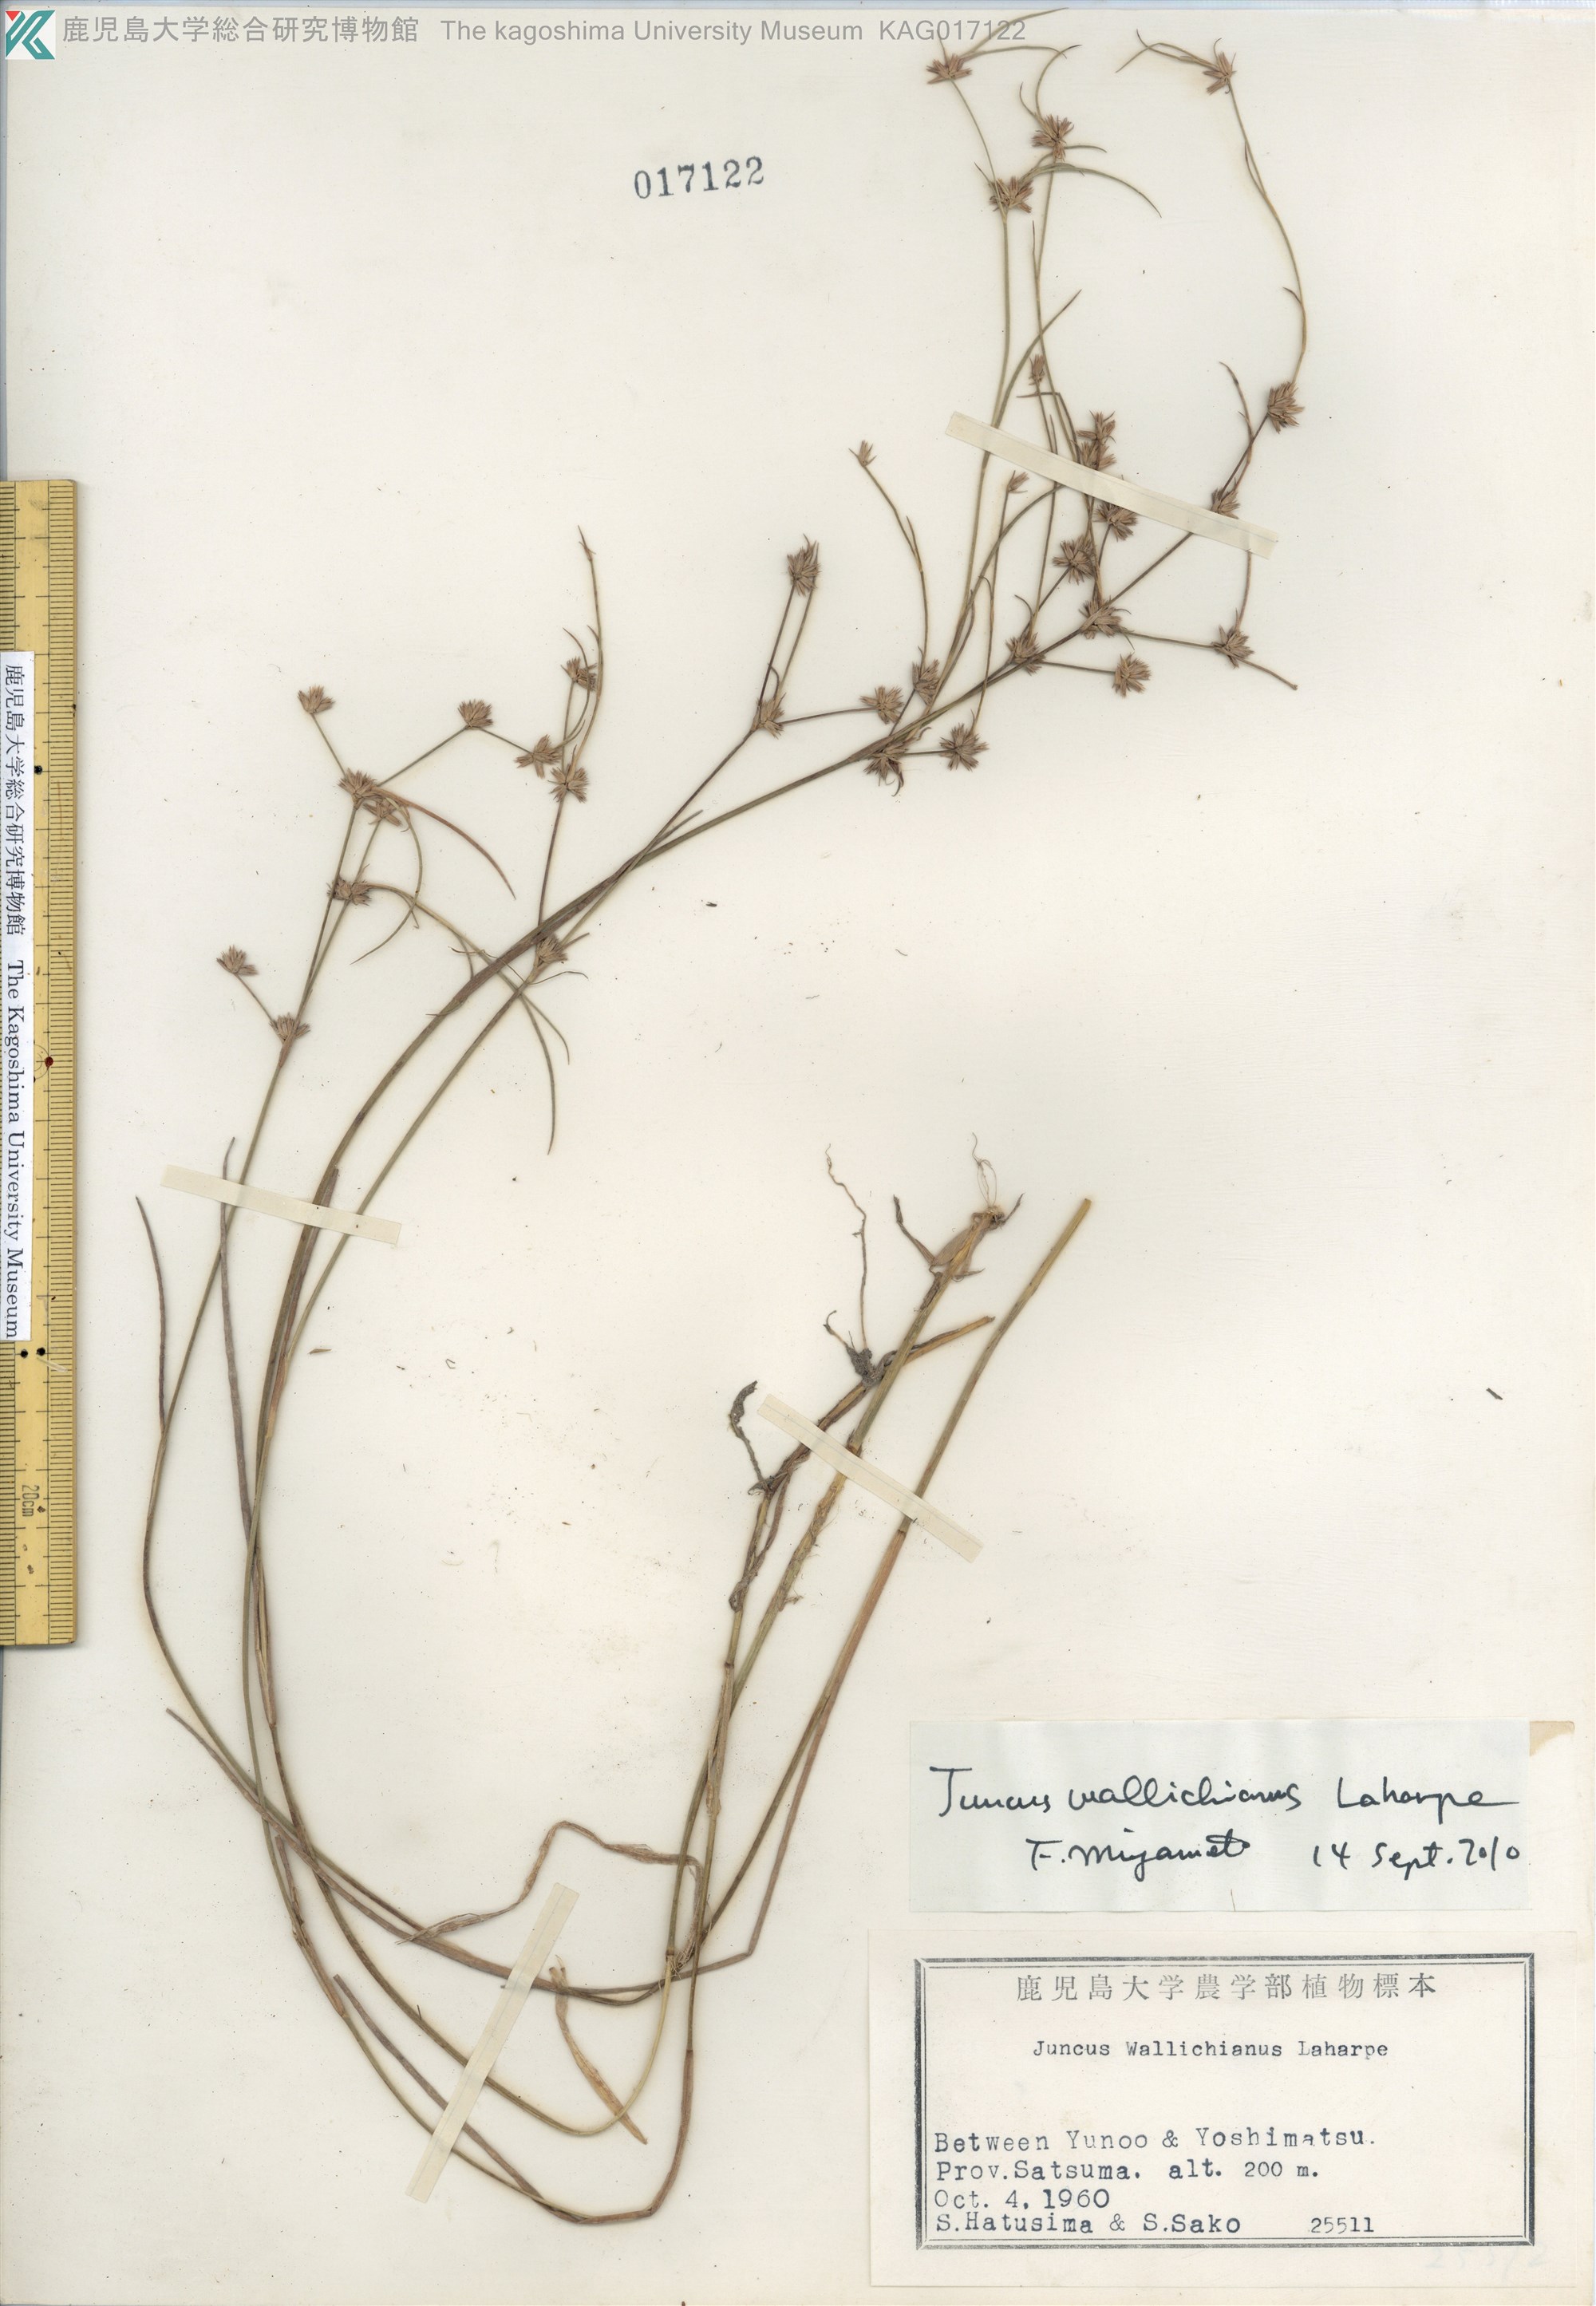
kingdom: Plantae
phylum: Tracheophyta
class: Liliopsida
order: Poales
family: Juncaceae
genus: Juncus
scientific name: Juncus wallichianus
